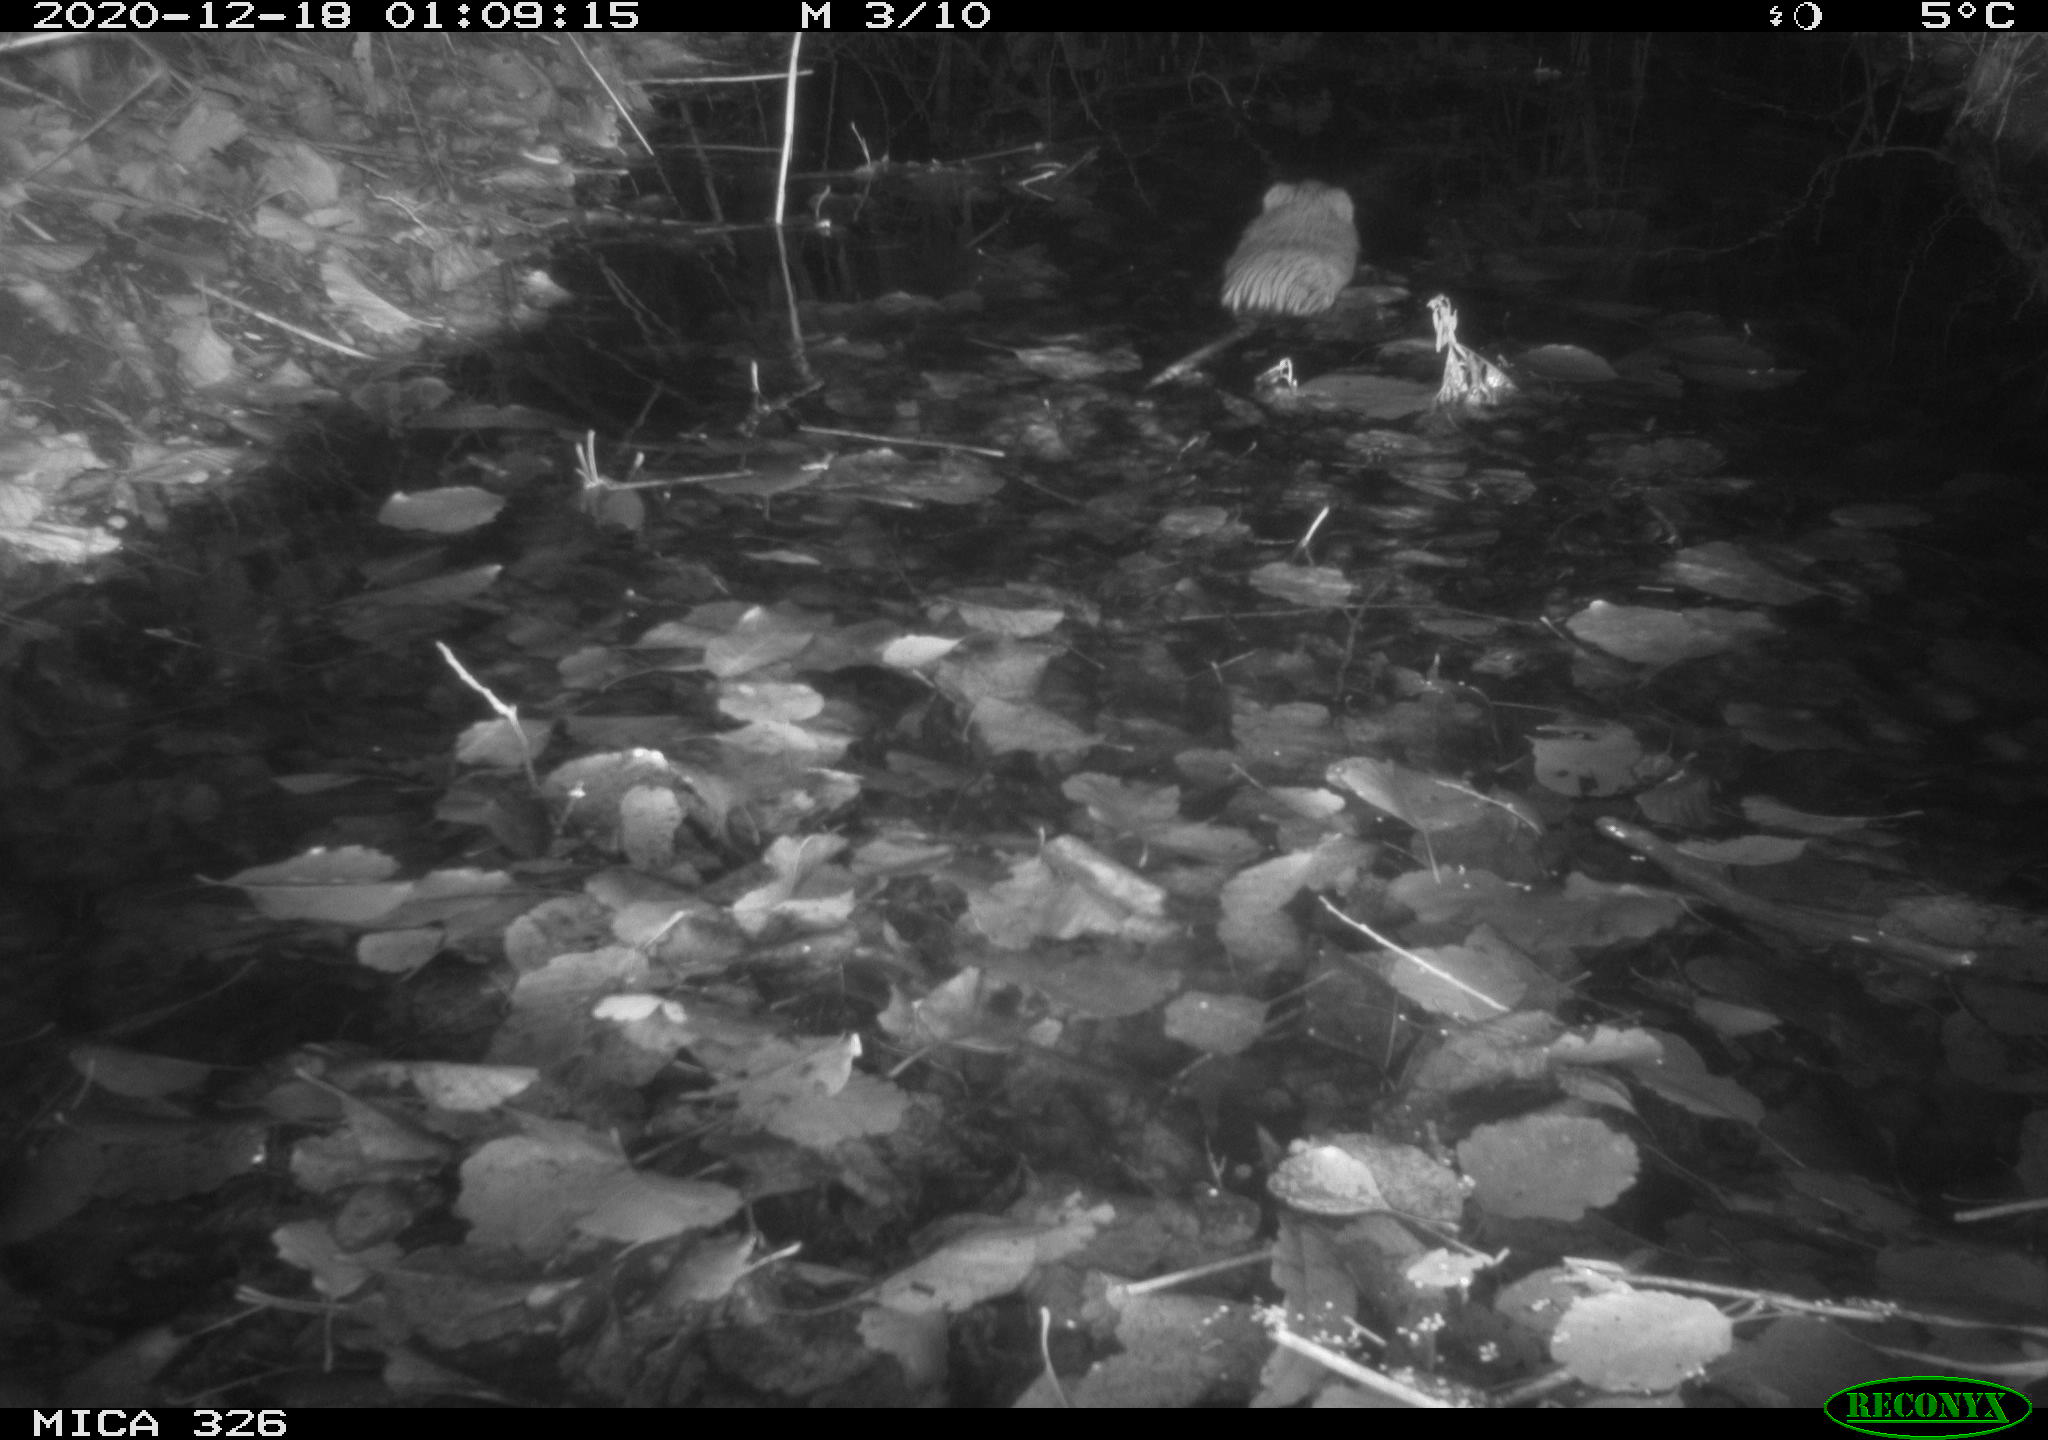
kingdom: Animalia
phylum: Chordata
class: Mammalia
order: Rodentia
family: Cricetidae
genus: Ondatra
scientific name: Ondatra zibethicus
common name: Muskrat
